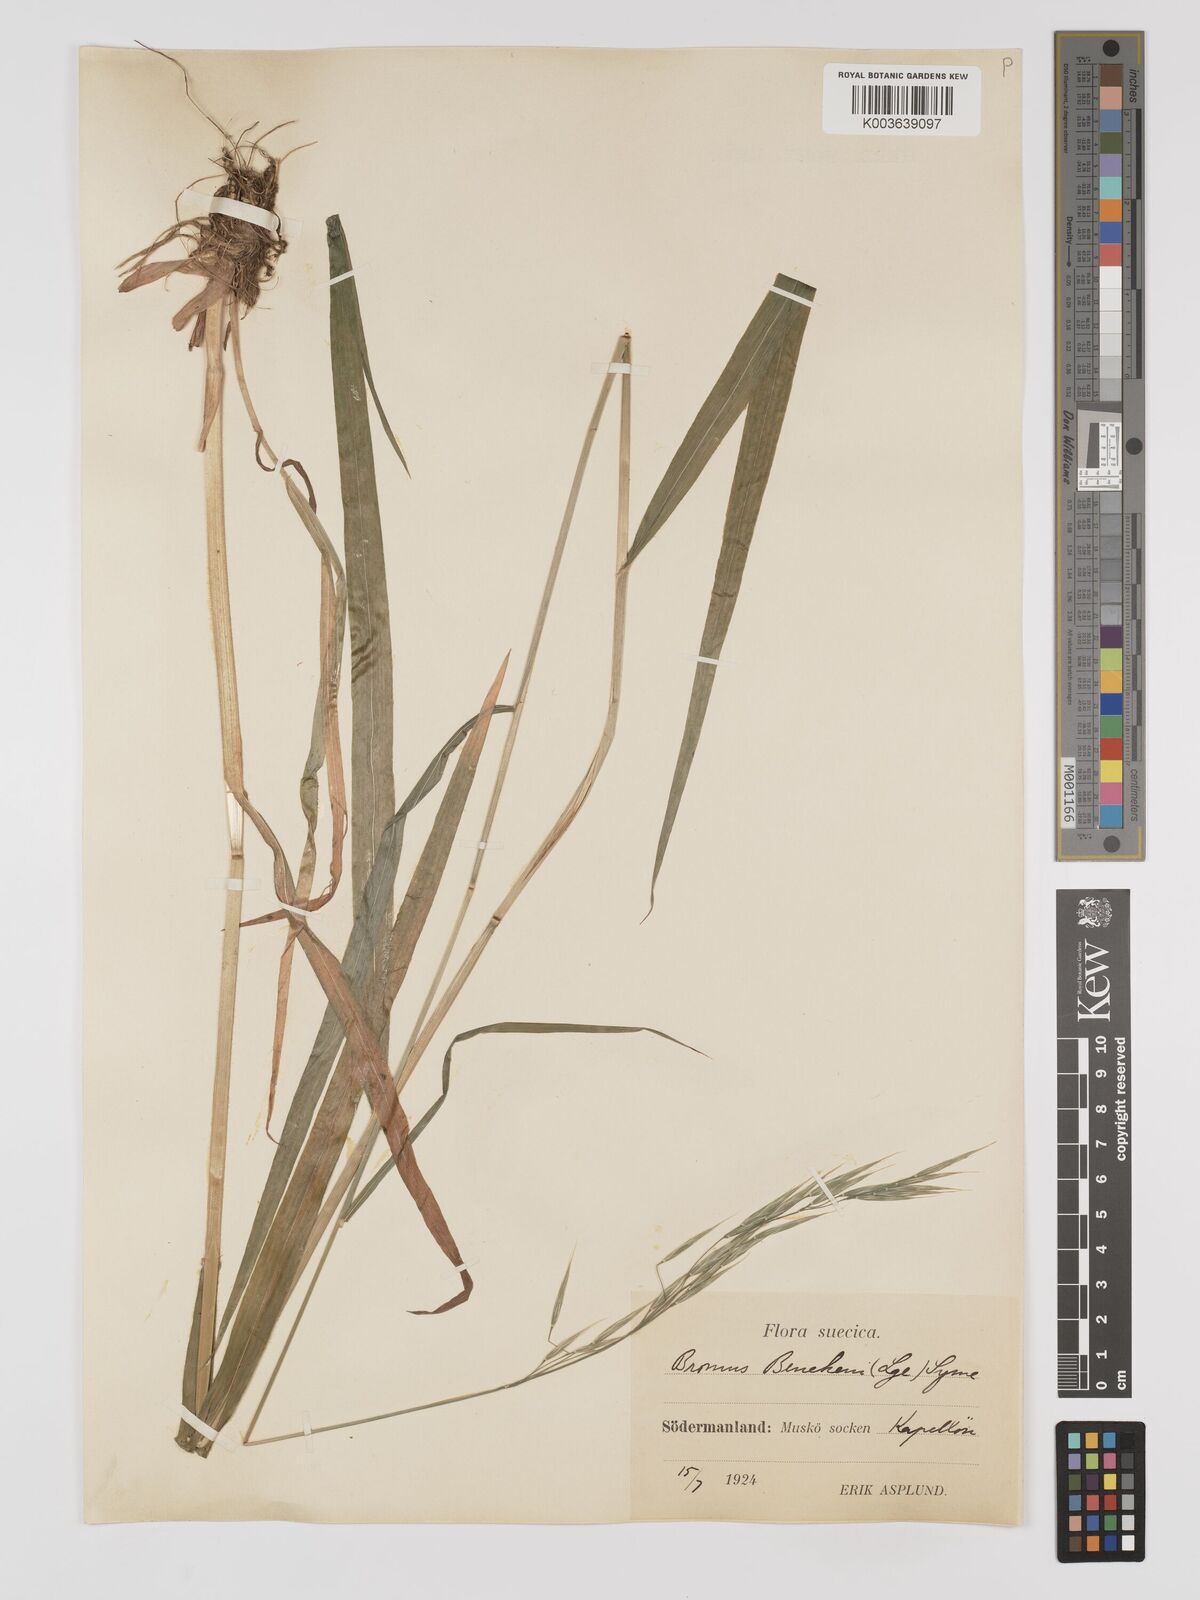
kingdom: Plantae
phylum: Tracheophyta
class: Liliopsida
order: Poales
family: Poaceae
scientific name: Poaceae
